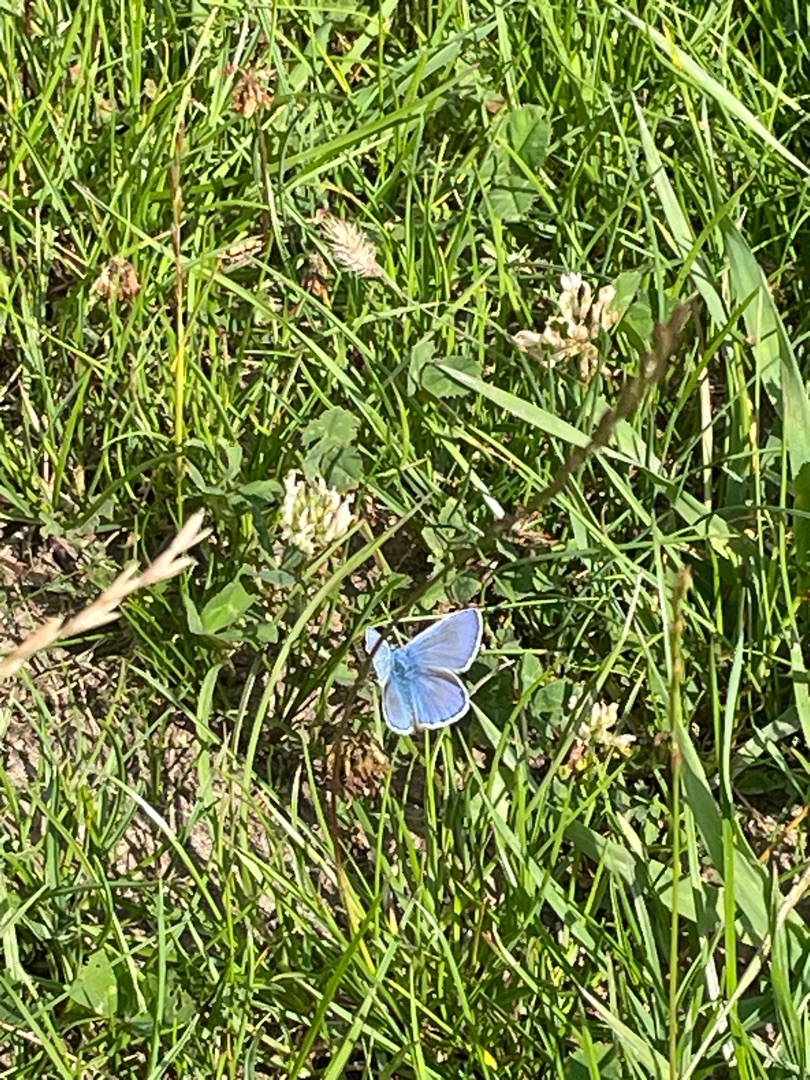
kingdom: Animalia
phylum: Arthropoda
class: Insecta
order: Lepidoptera
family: Lycaenidae
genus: Polyommatus
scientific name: Polyommatus icarus
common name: Almindelig blåfugl
